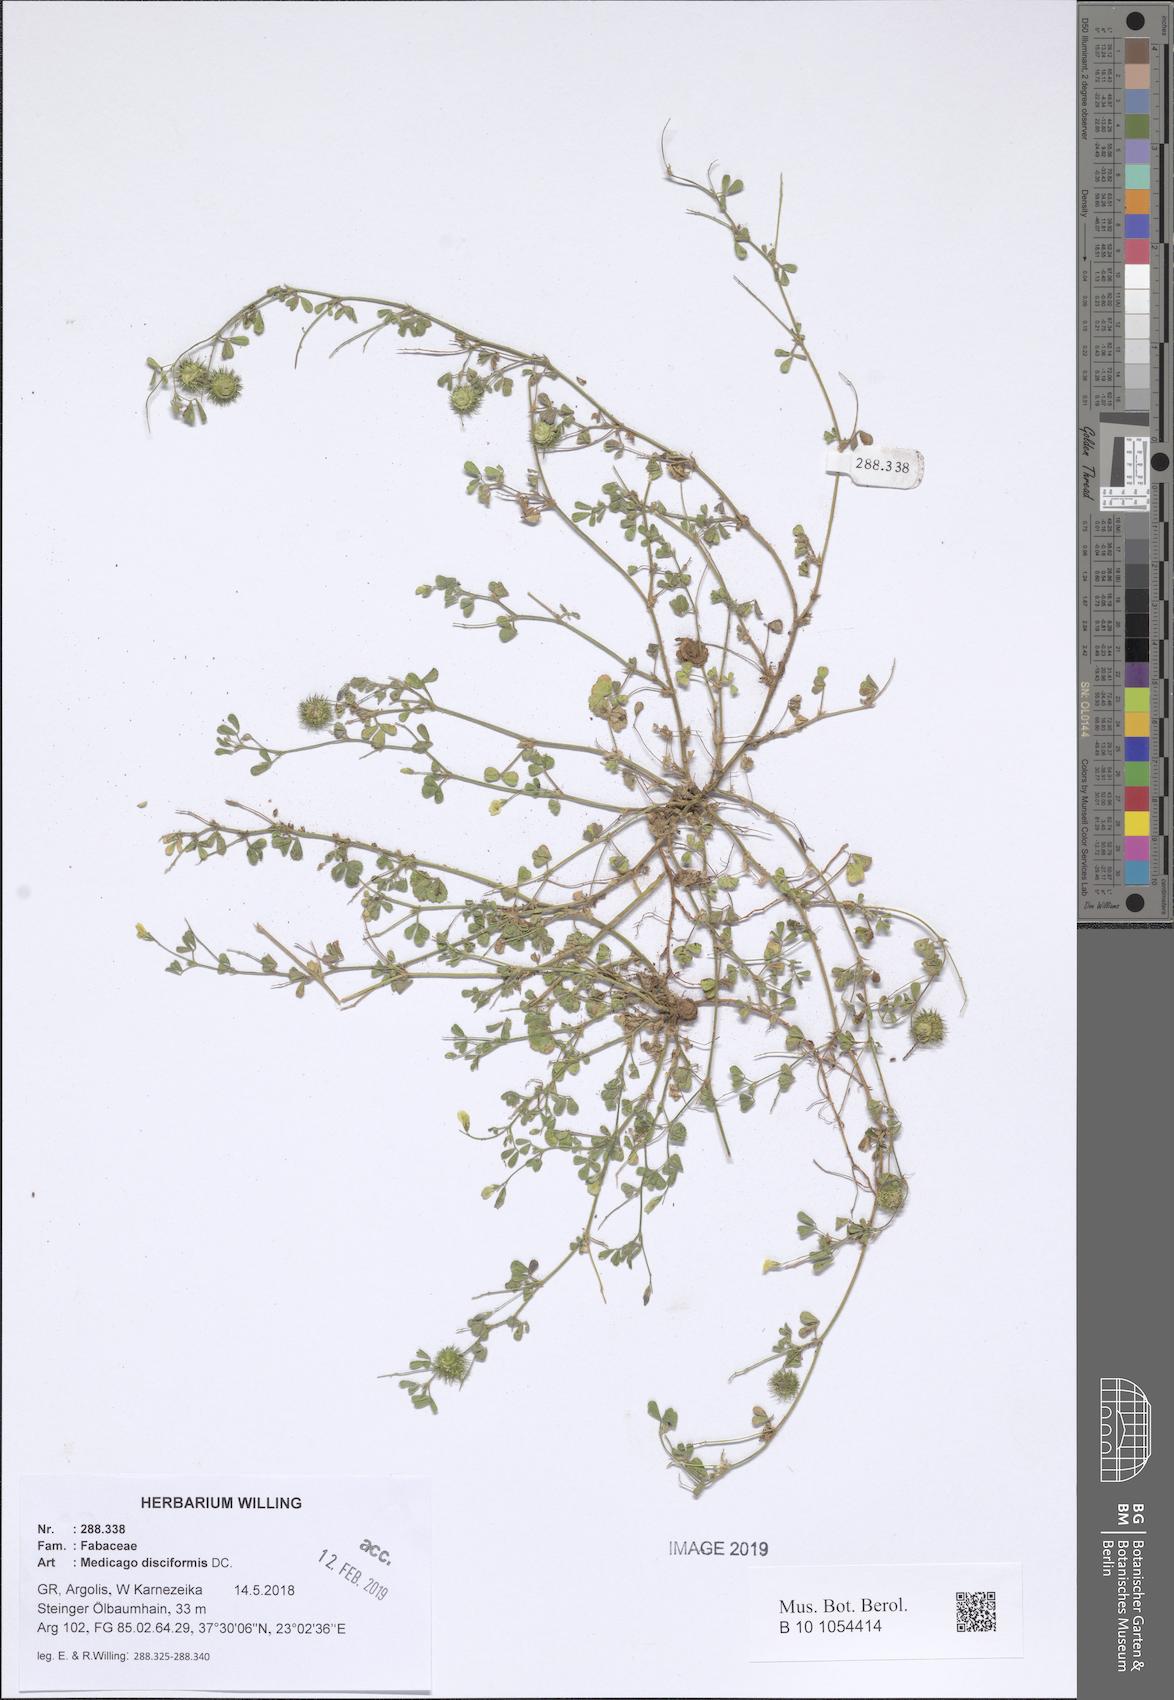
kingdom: Plantae
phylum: Tracheophyta
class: Magnoliopsida
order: Fabales
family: Fabaceae
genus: Medicago
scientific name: Medicago disciformis
